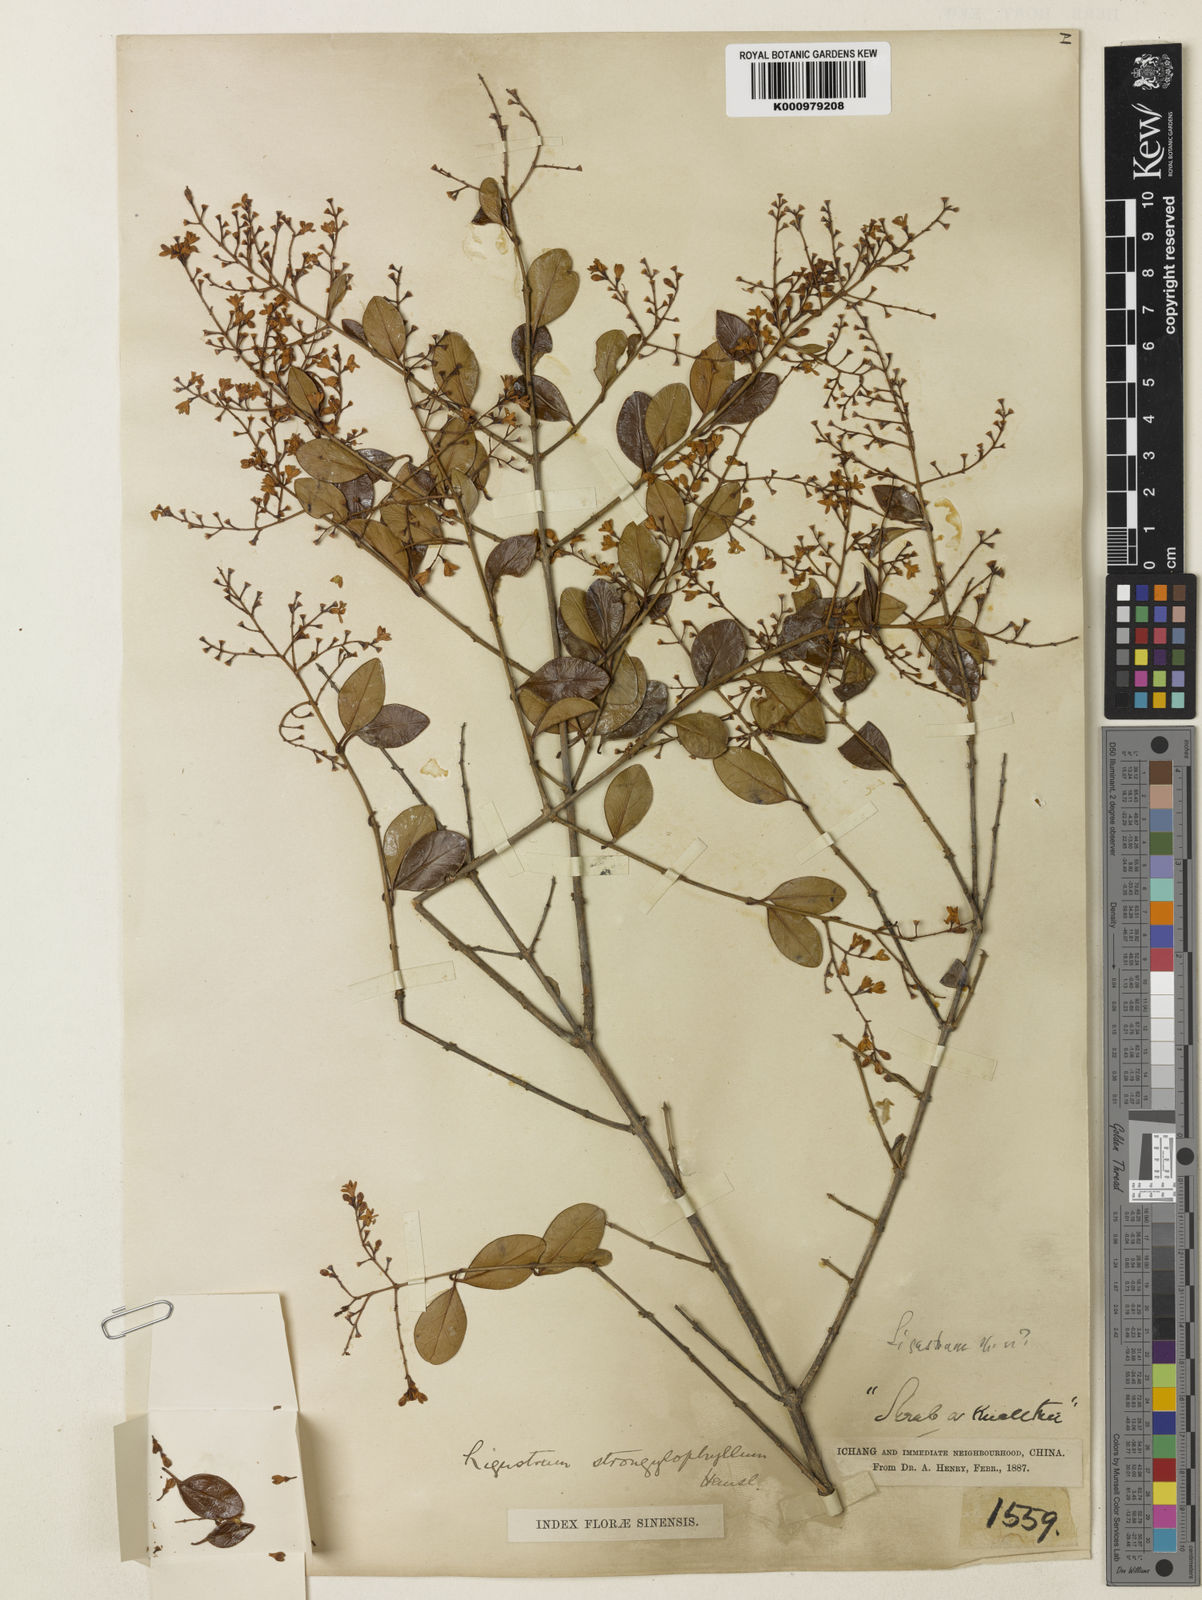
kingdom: Plantae
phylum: Tracheophyta
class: Magnoliopsida
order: Lamiales
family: Oleaceae
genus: Ligustrum
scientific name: Ligustrum strongylophyllum
